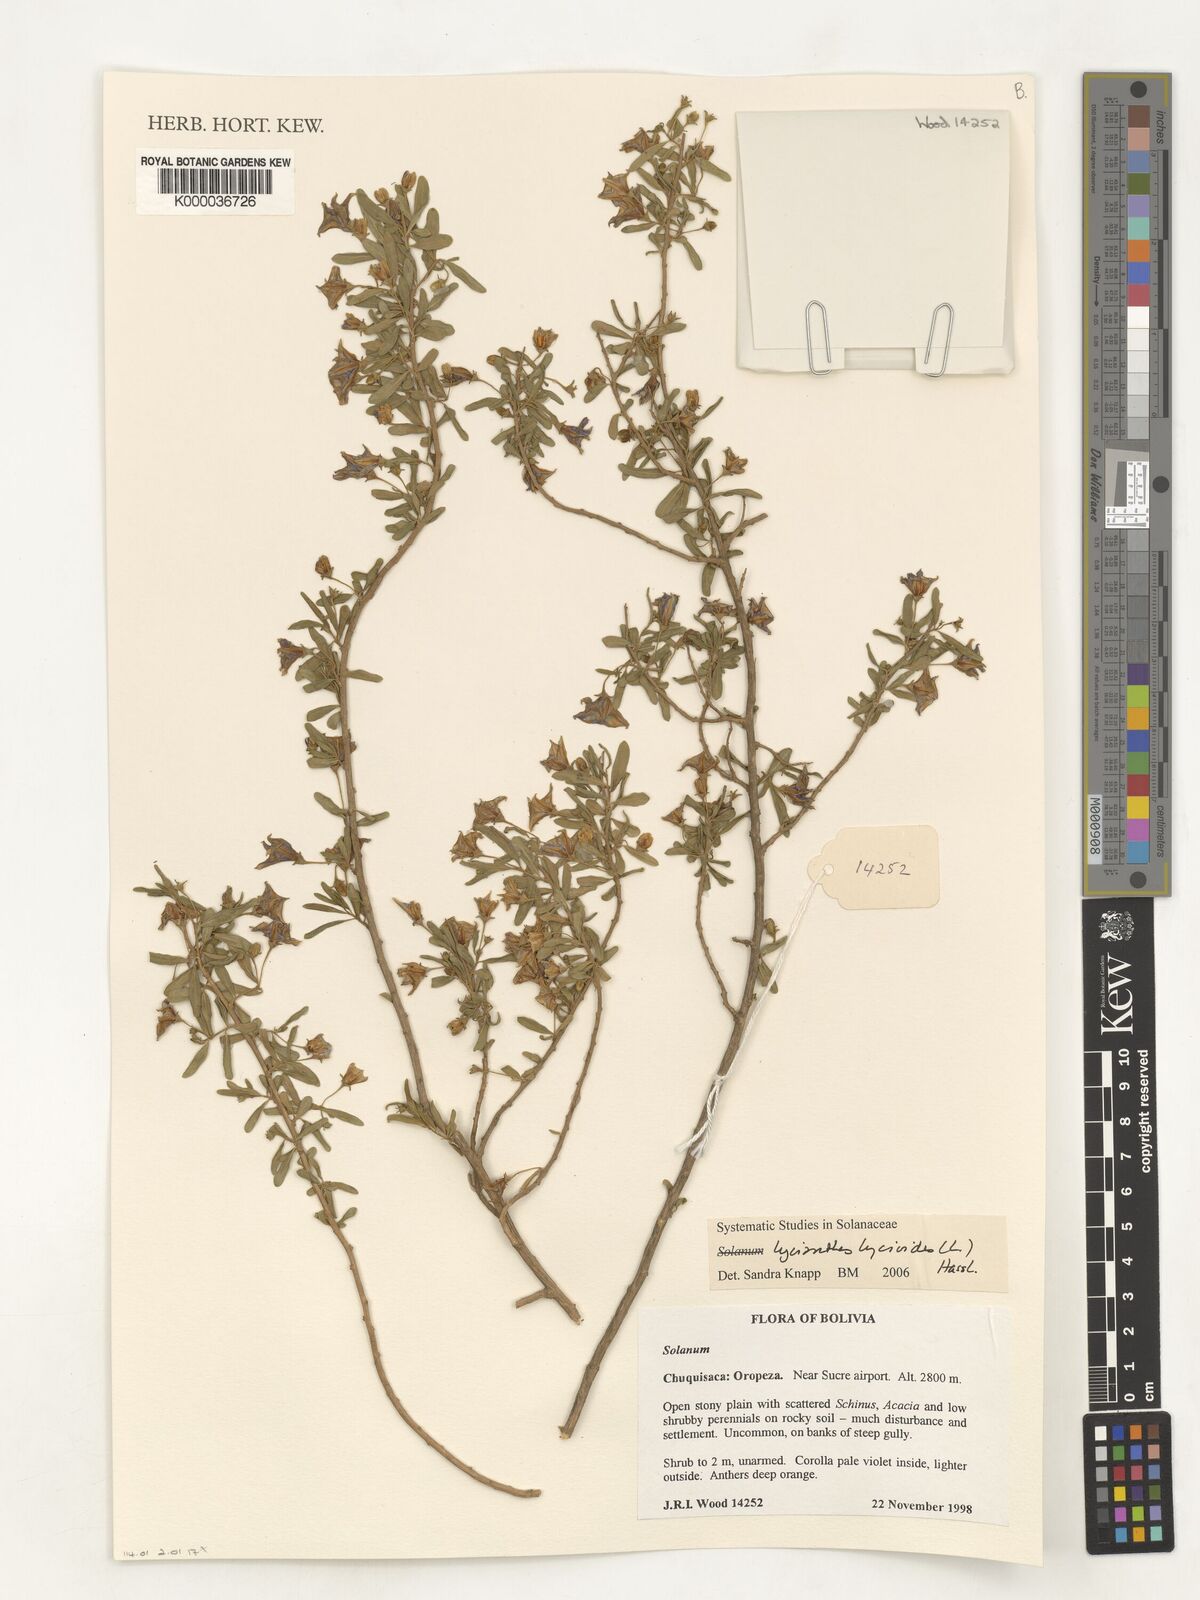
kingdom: Plantae
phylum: Tracheophyta
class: Magnoliopsida
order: Solanales
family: Solanaceae
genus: Lycianthes
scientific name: Lycianthes lycioides
